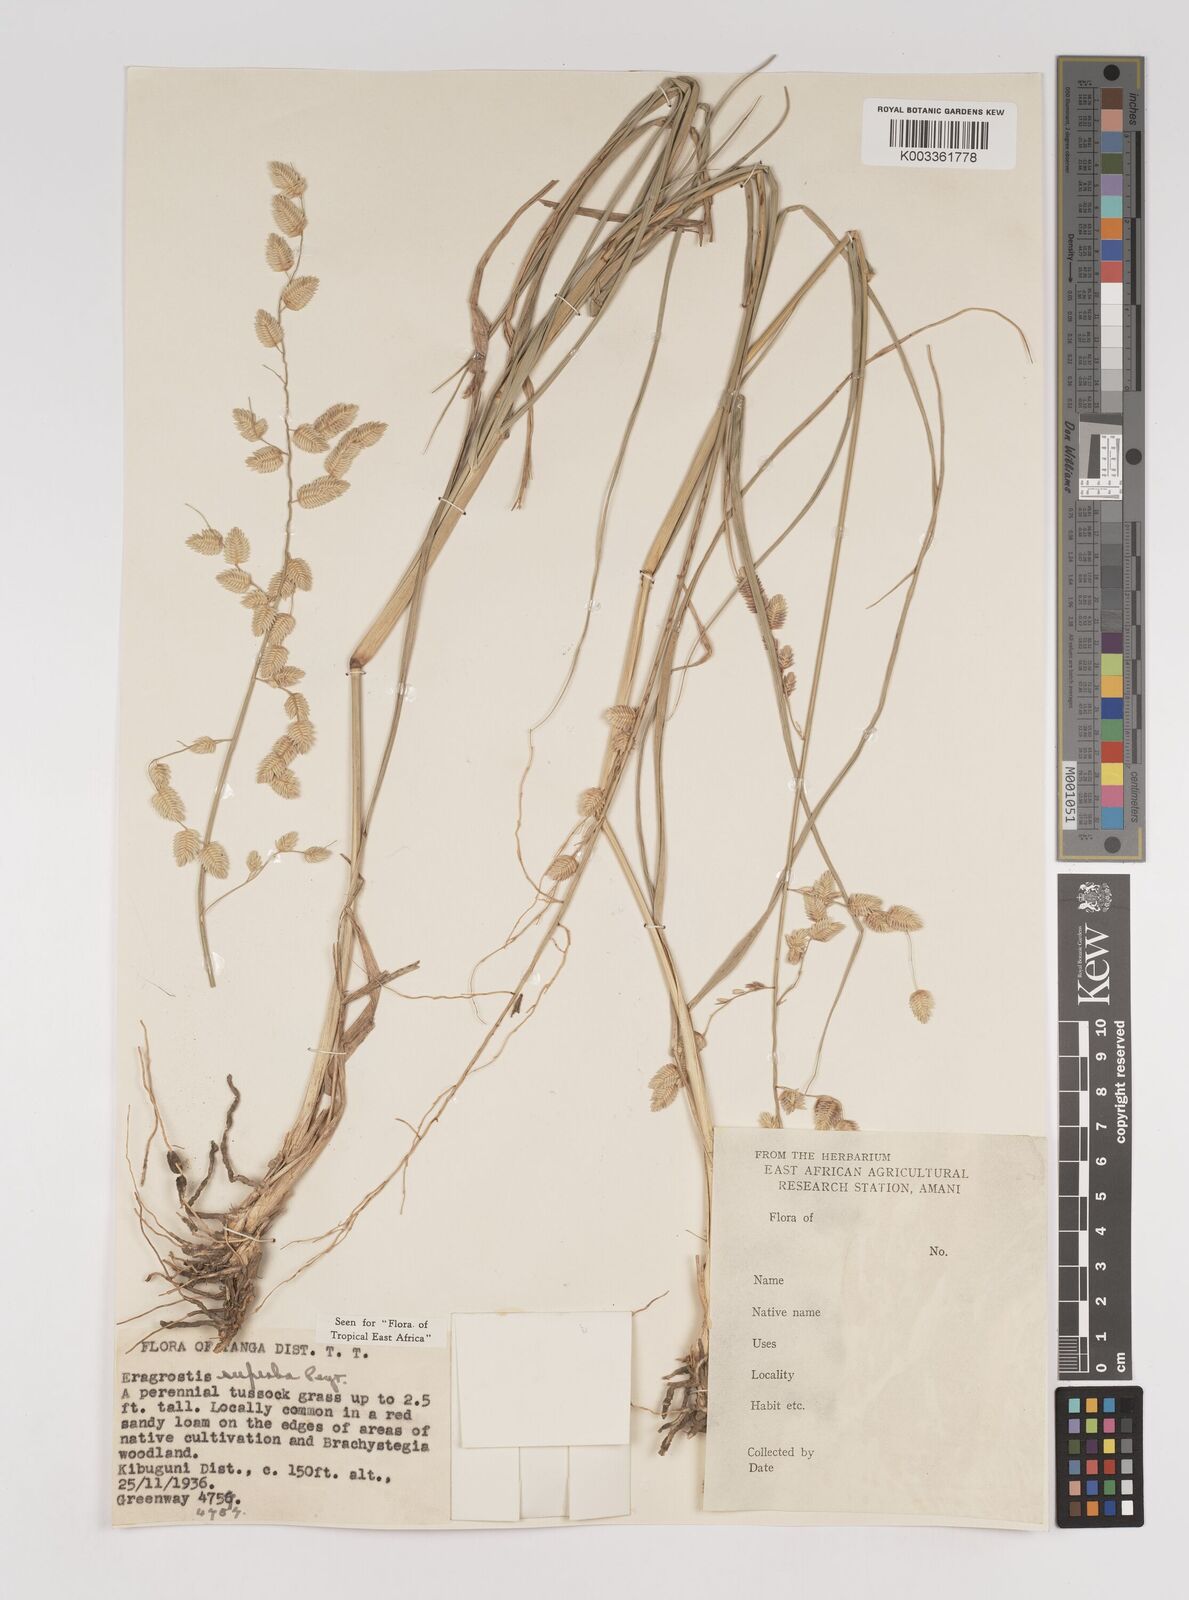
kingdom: Plantae
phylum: Tracheophyta
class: Liliopsida
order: Poales
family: Poaceae
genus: Eragrostis
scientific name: Eragrostis superba
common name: Wilman lovegrass
